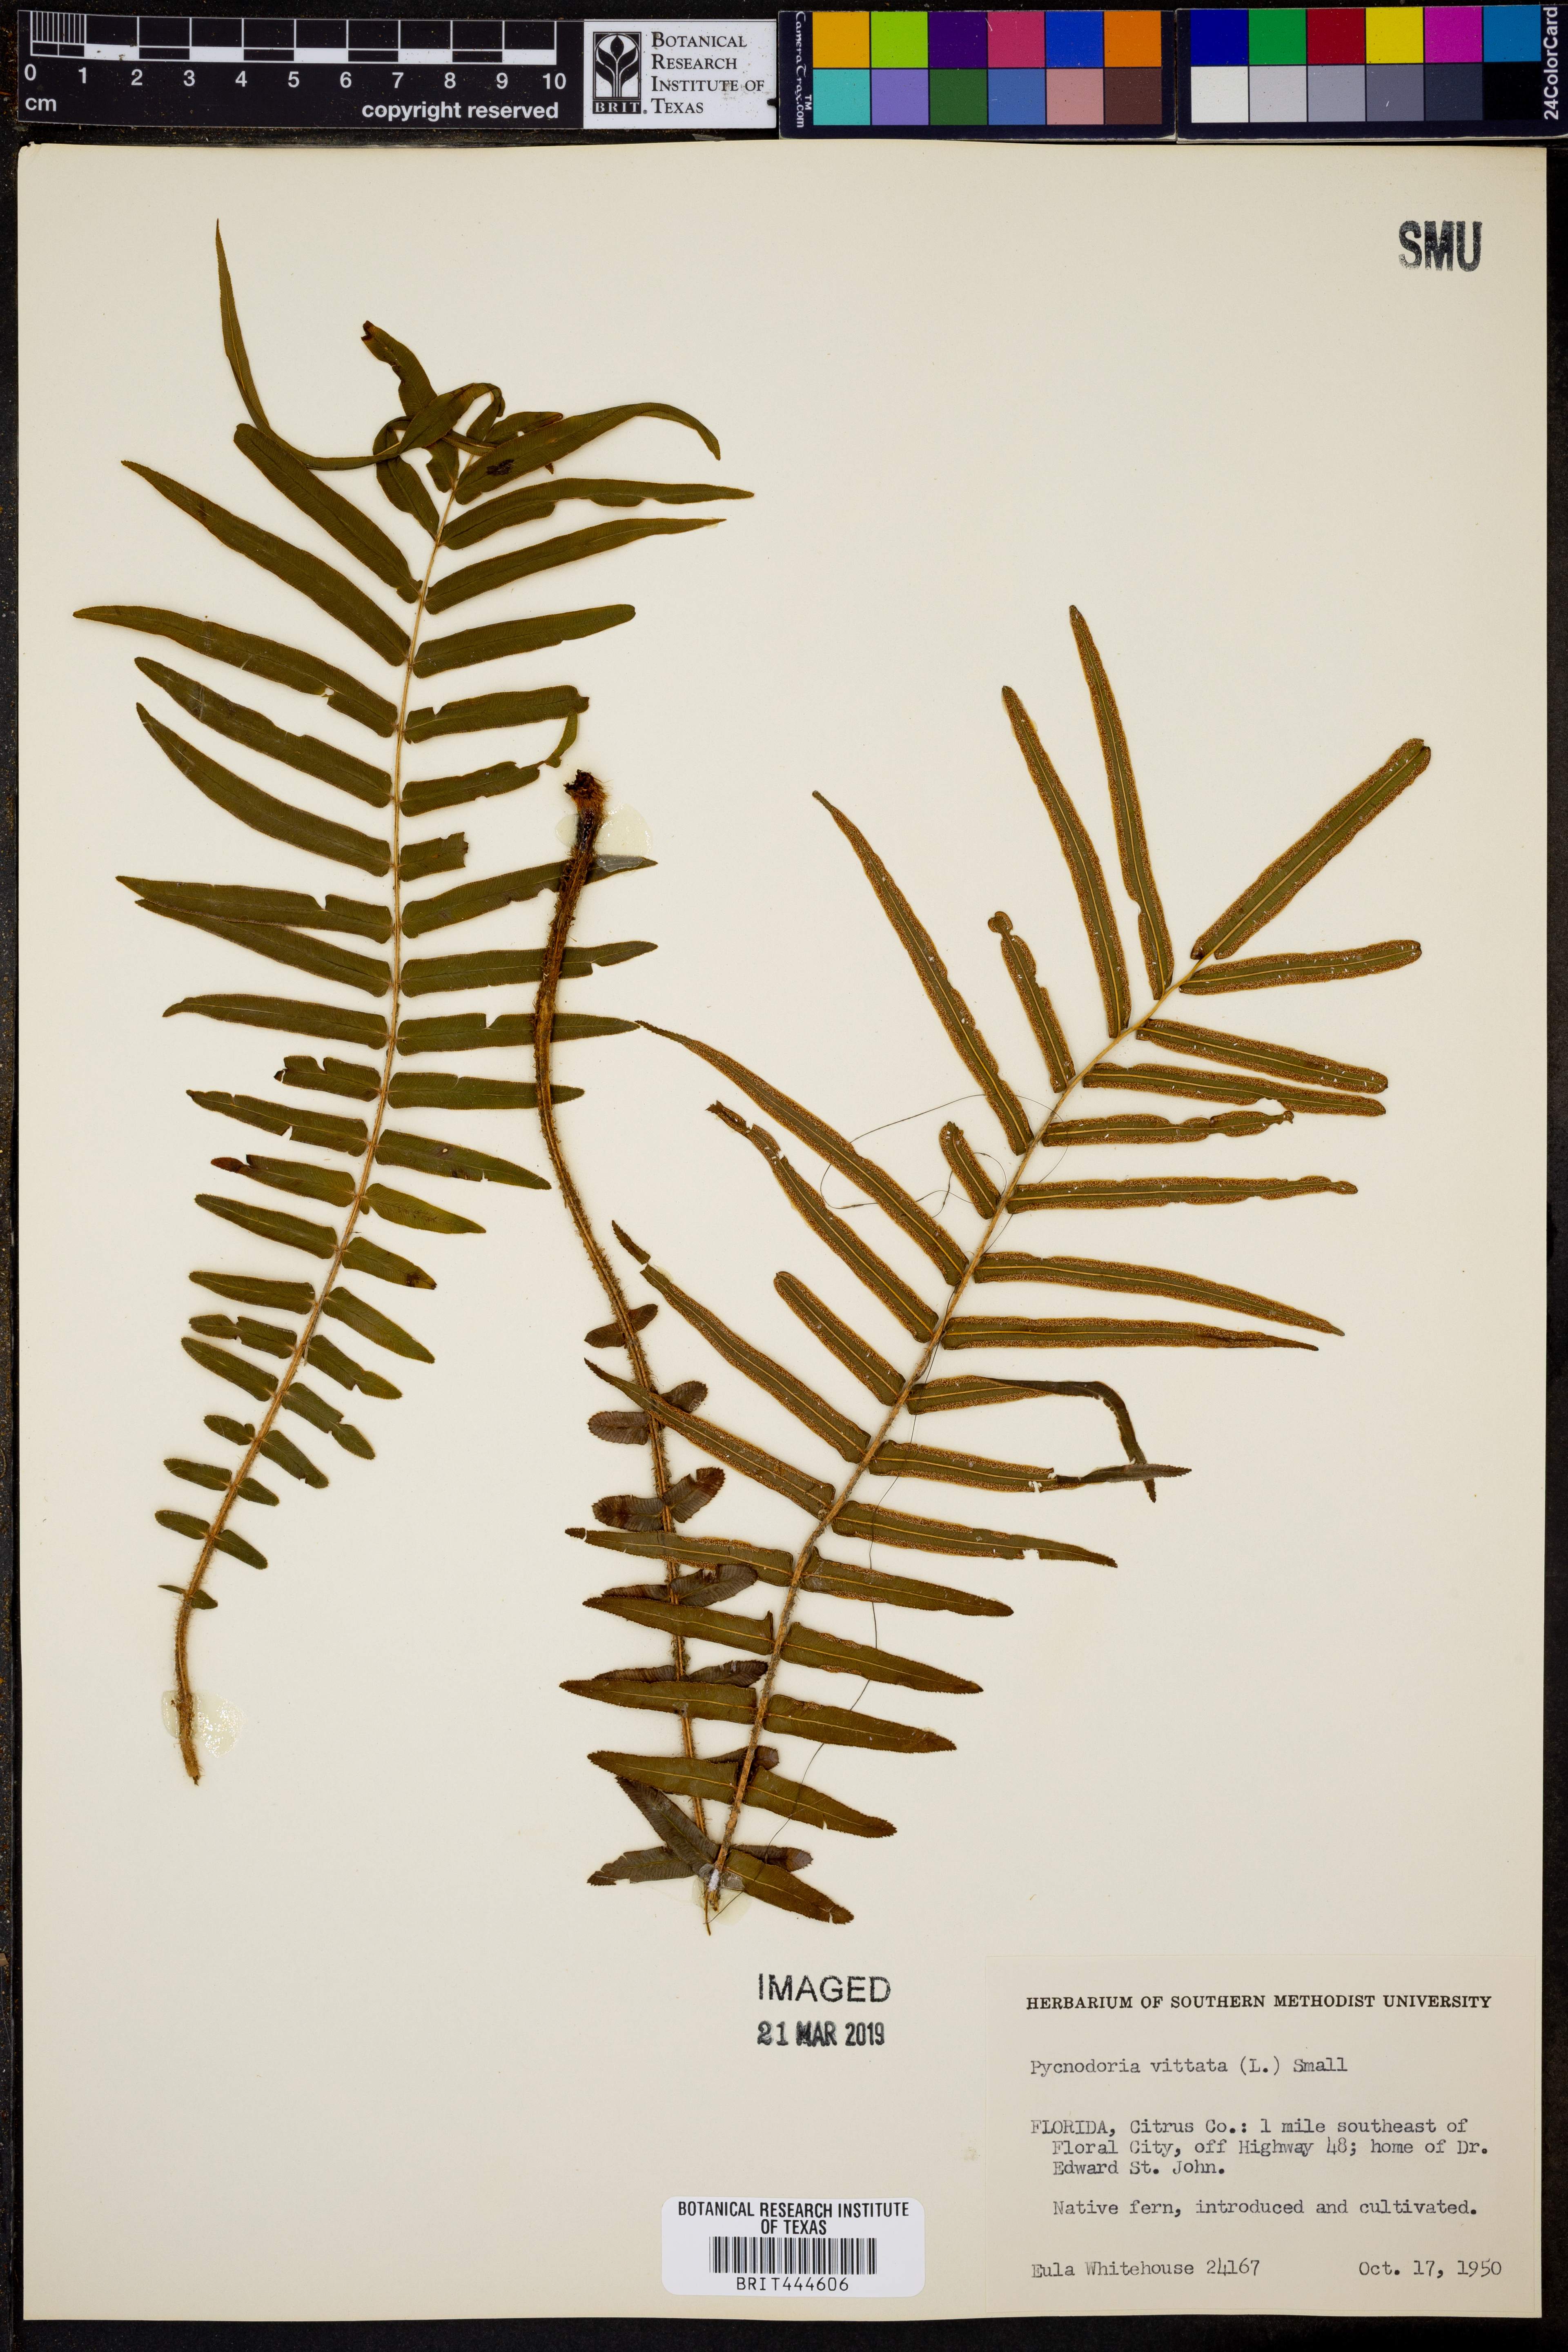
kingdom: Plantae
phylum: Tracheophyta
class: Polypodiopsida
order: Polypodiales
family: Pteridaceae
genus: Pteris
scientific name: Pteris vittata
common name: Ladder brake
